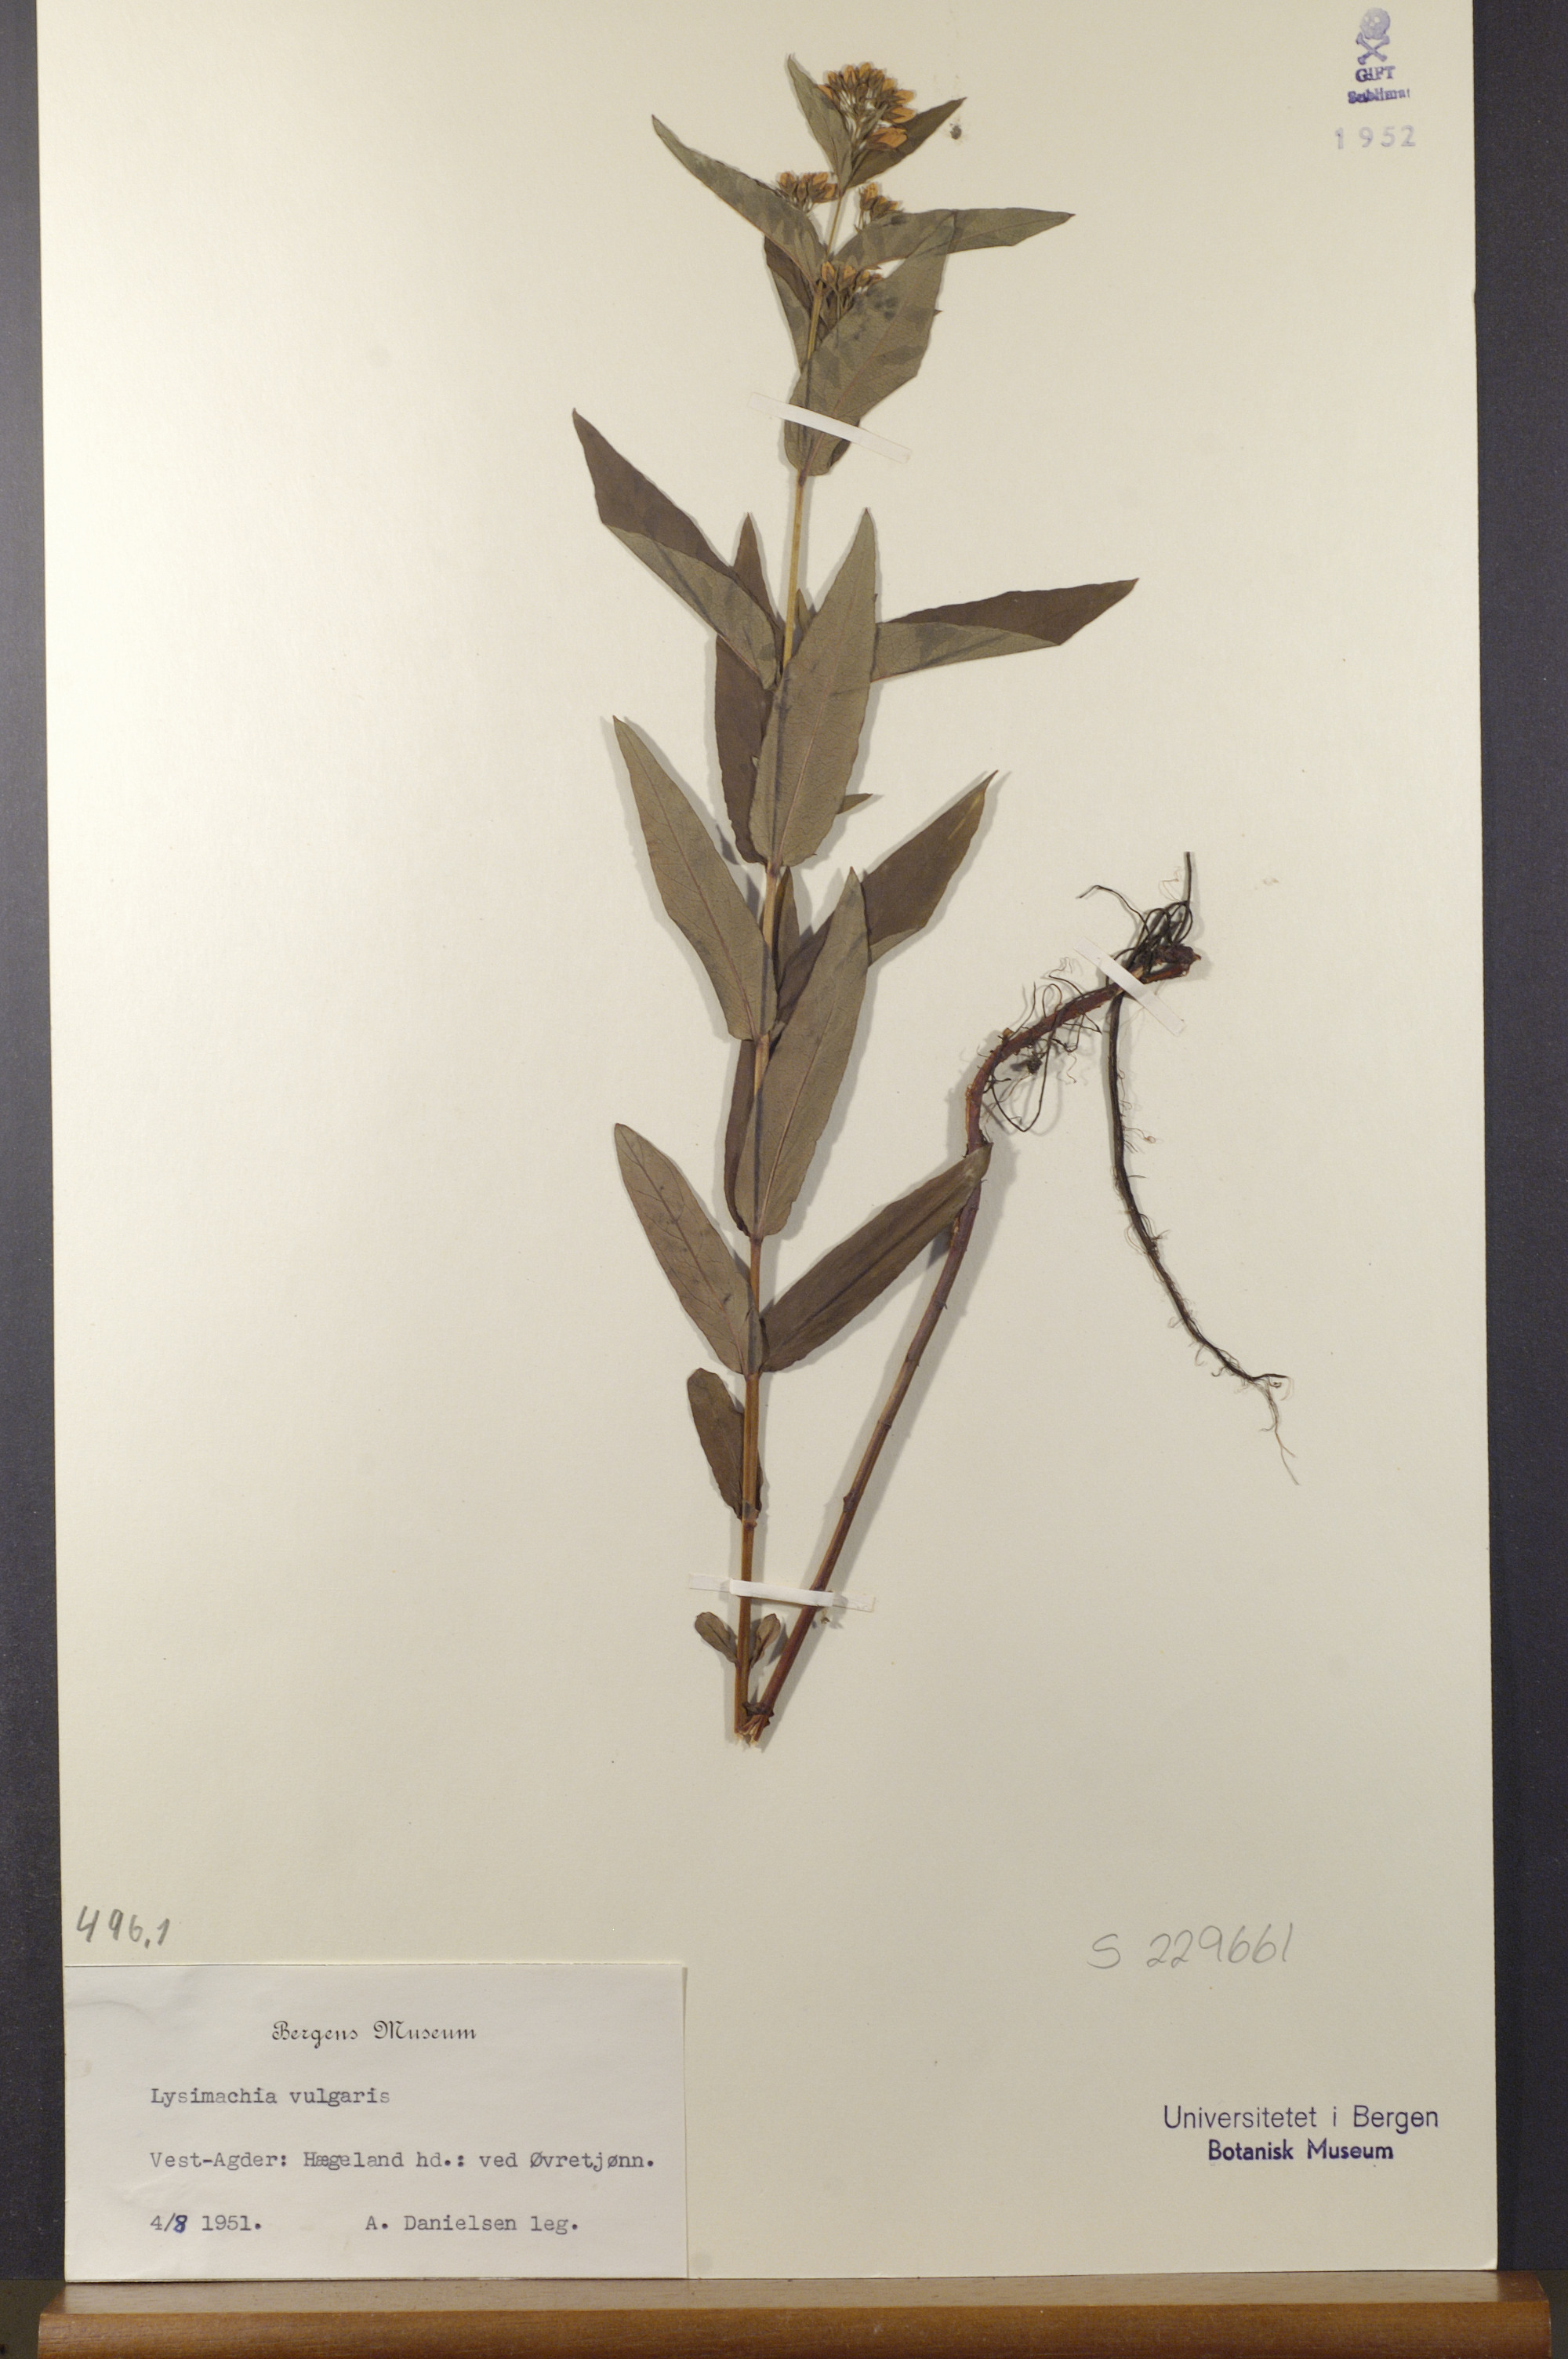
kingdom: Plantae
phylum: Tracheophyta
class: Magnoliopsida
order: Ericales
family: Primulaceae
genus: Lysimachia
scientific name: Lysimachia vulgaris
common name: Yellow loosestrife
